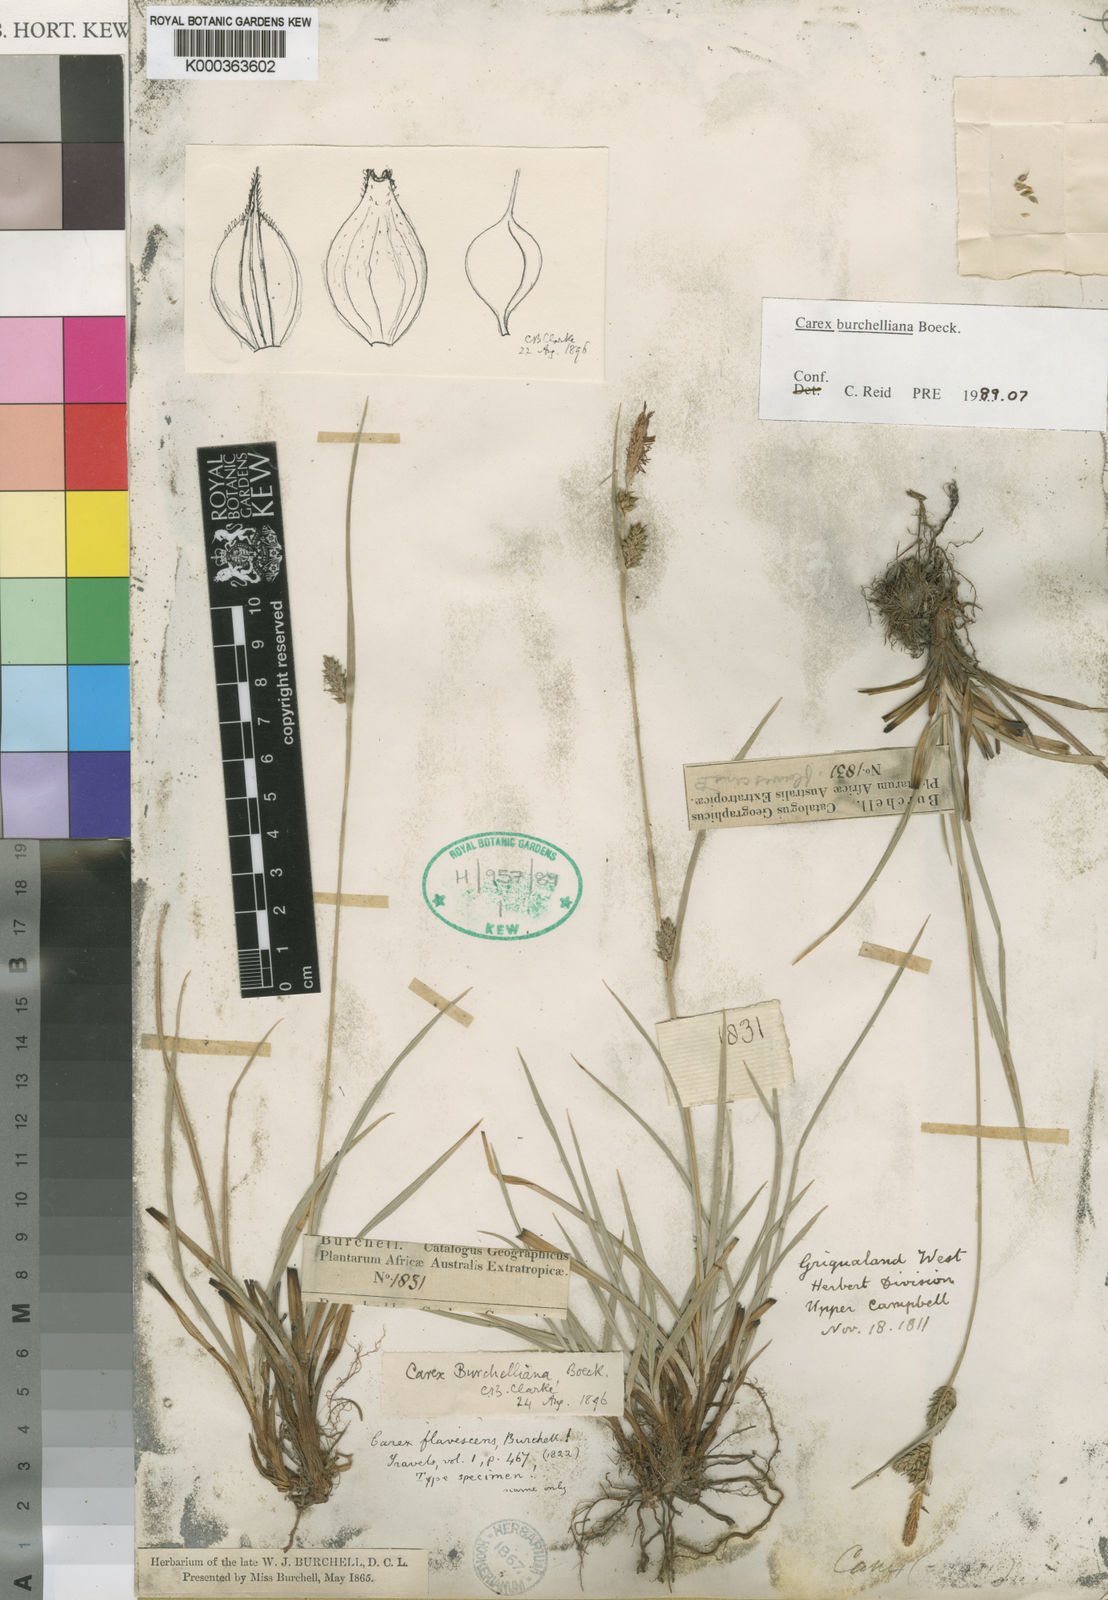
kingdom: Plantae
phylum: Tracheophyta
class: Liliopsida
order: Poales
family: Cyperaceae
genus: Carex
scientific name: Carex burchelliana
